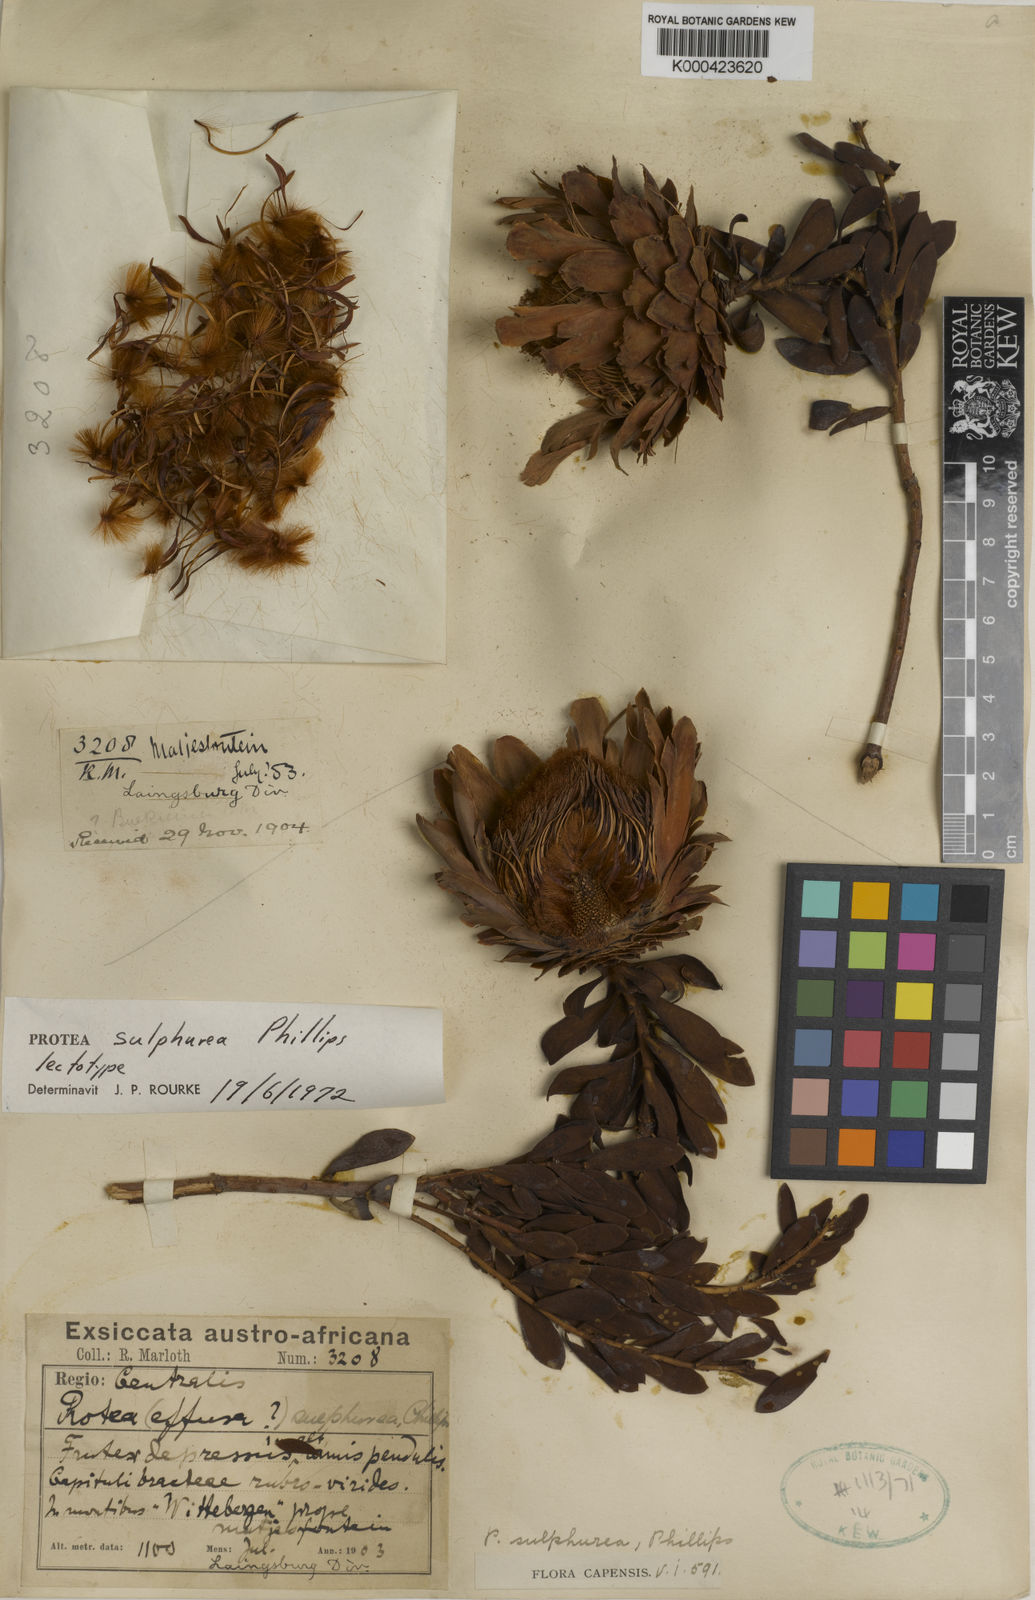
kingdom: Plantae
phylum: Tracheophyta
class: Magnoliopsida
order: Proteales
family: Proteaceae
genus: Protea
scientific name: Protea sulphurea
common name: Sulphur sugarbush
